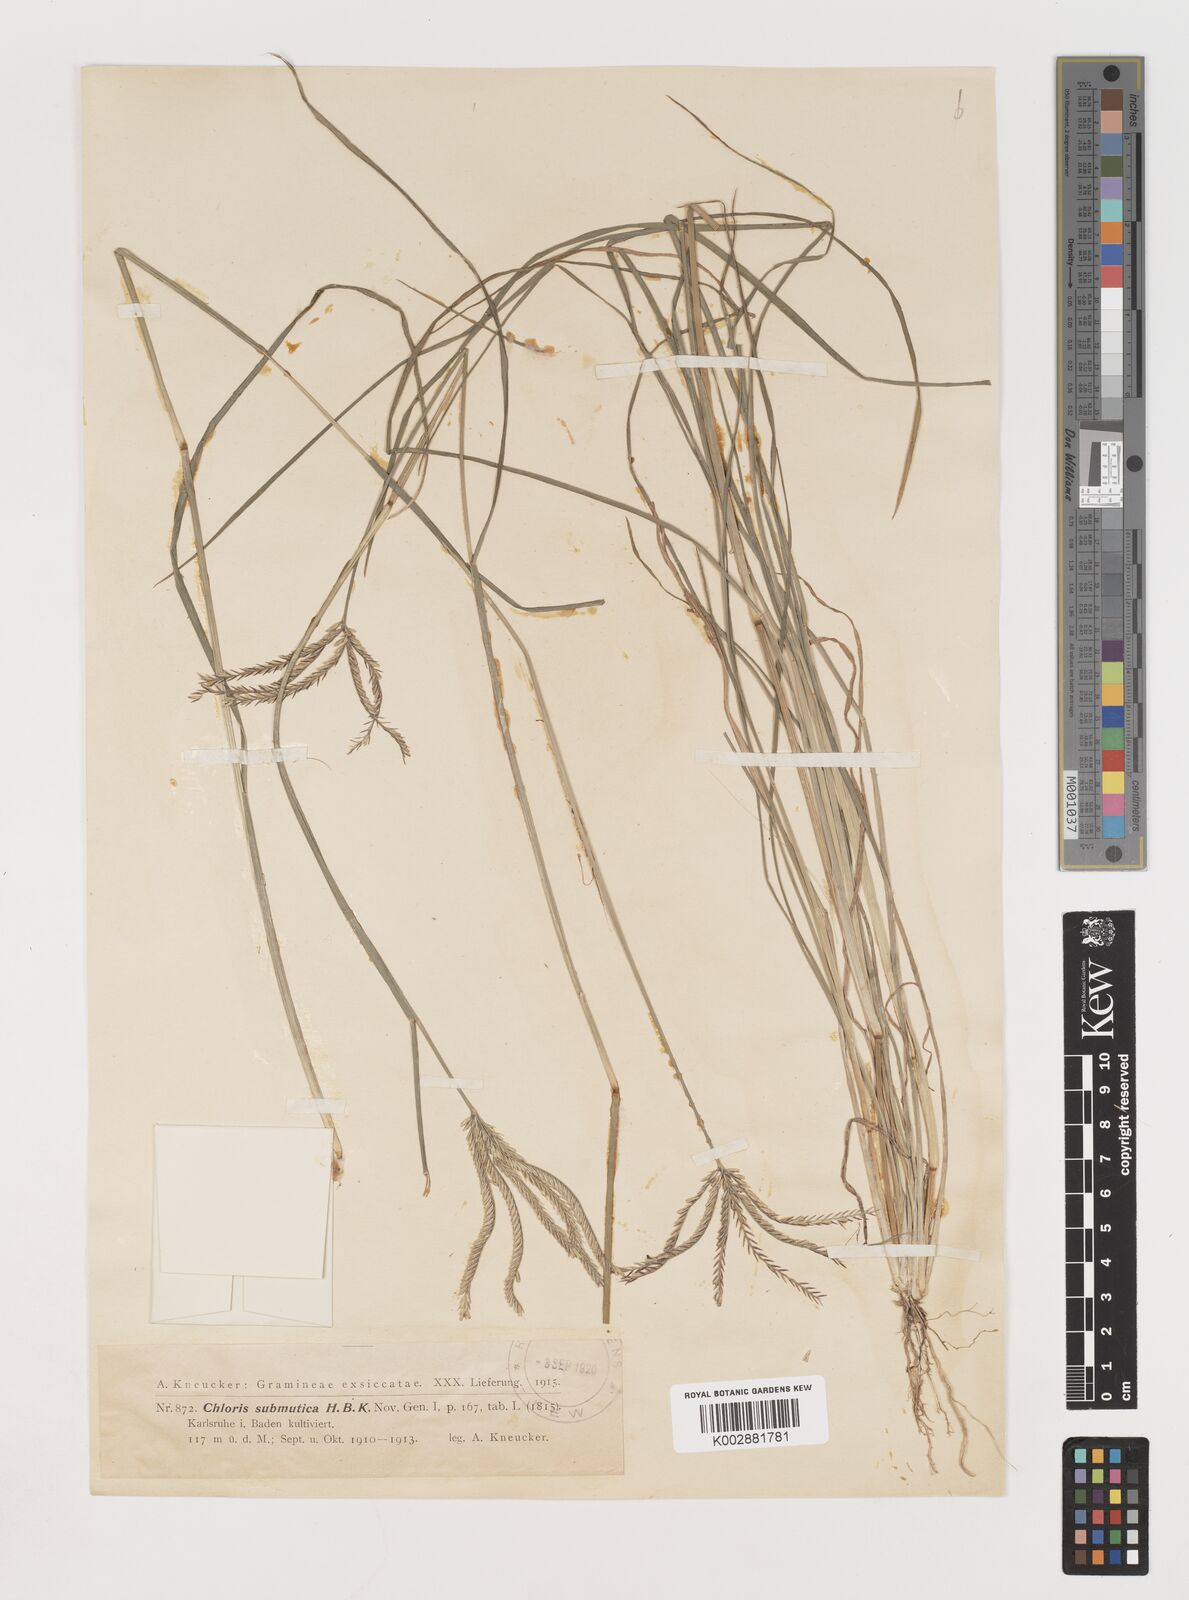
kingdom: Plantae
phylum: Tracheophyta
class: Liliopsida
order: Poales
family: Poaceae
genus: Chloris
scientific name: Chloris submutica
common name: Mexican windmill grass
